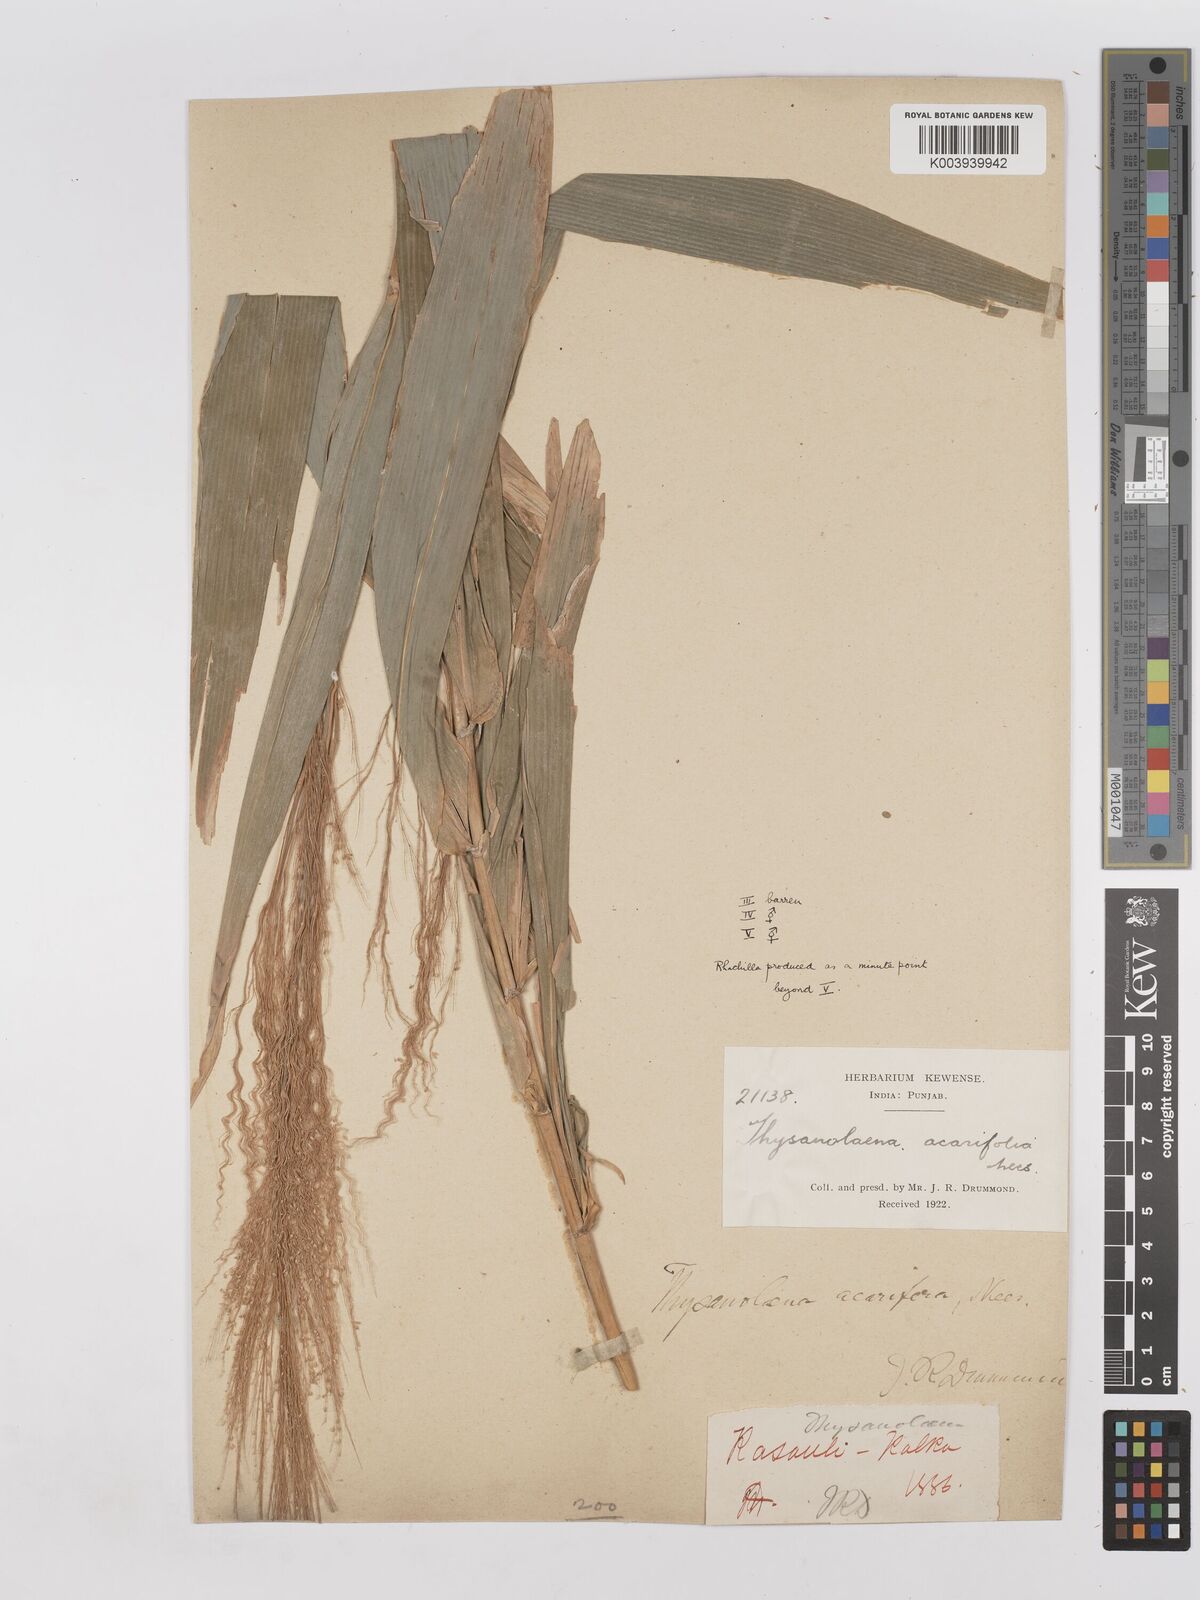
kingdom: Plantae
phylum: Tracheophyta
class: Liliopsida
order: Poales
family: Poaceae
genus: Thysanolaena
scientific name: Thysanolaena latifolia
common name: Tiger grass
